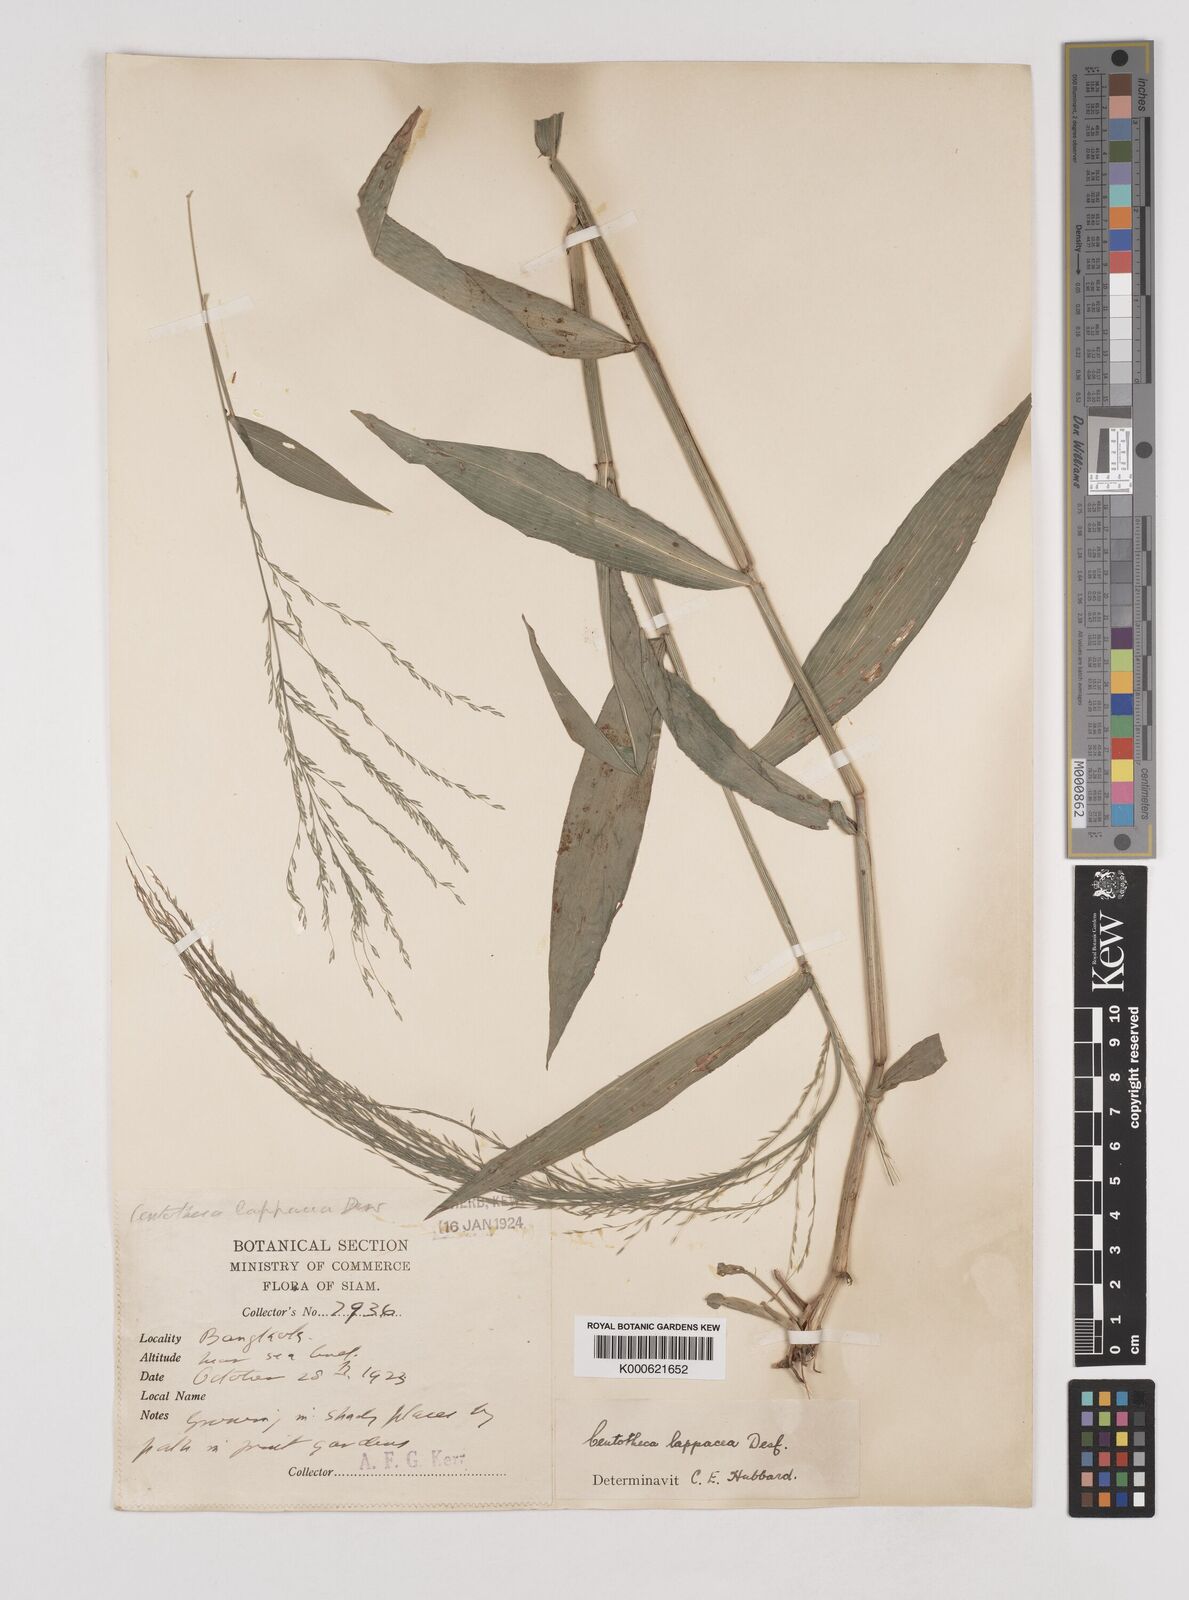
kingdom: Plantae
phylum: Tracheophyta
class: Liliopsida
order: Poales
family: Poaceae
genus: Centotheca
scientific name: Centotheca lappacea
